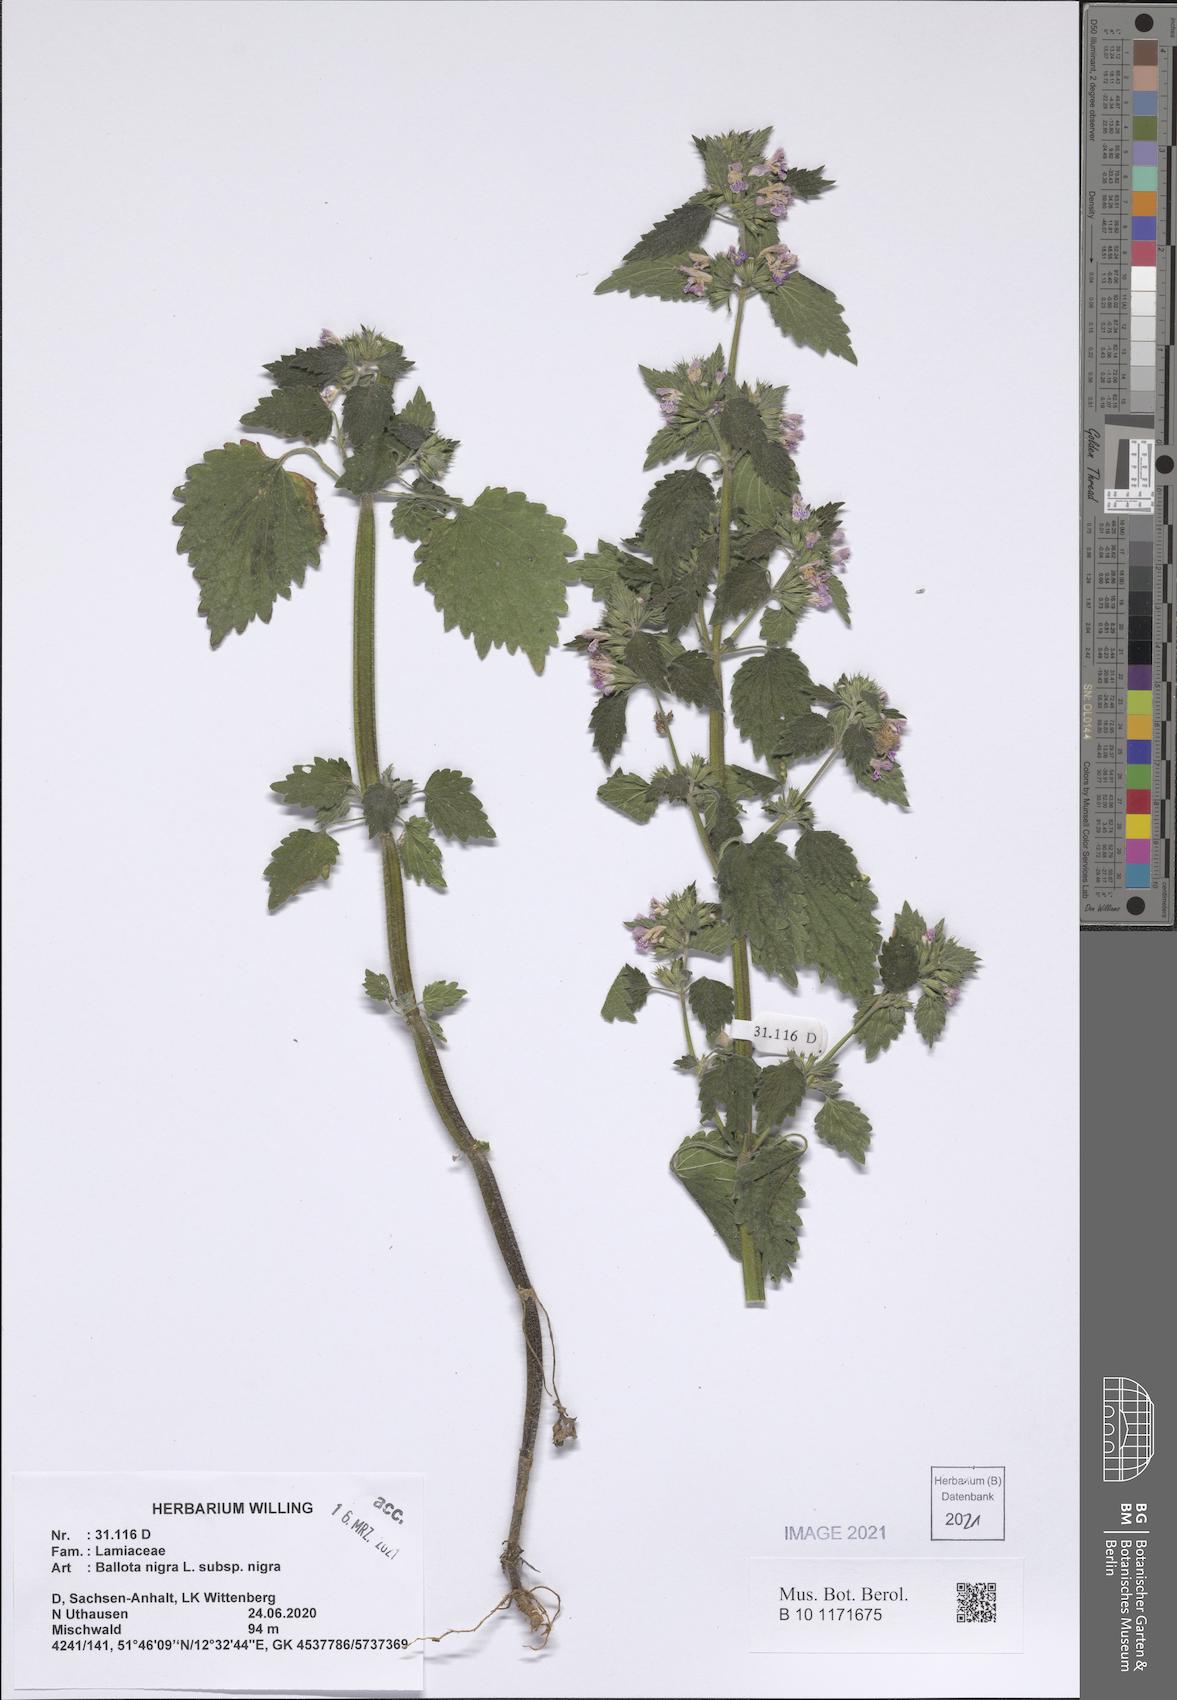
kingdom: Plantae
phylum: Tracheophyta
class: Magnoliopsida
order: Lamiales
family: Lamiaceae
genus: Ballota
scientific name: Ballota nigra
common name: Black horehound
